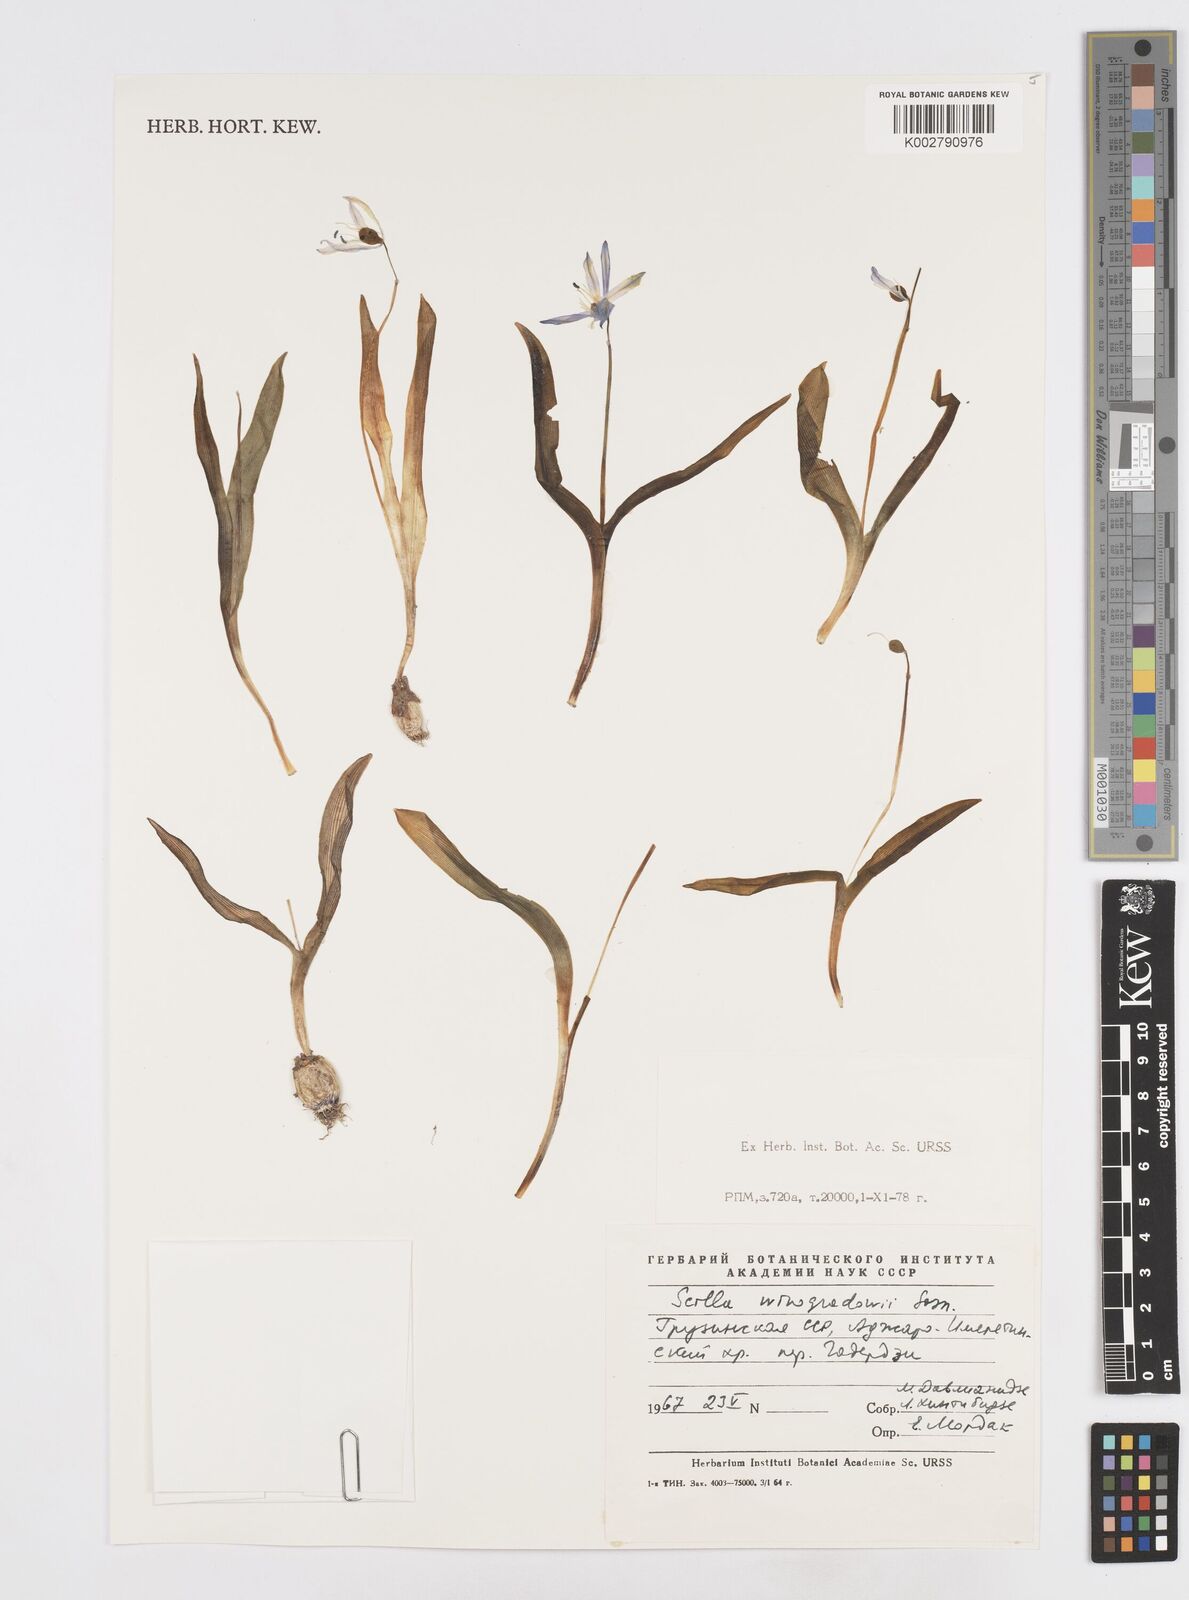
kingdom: Plantae
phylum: Tracheophyta
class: Liliopsida
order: Asparagales
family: Asparagaceae
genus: Scilla
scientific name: Scilla monanthos
